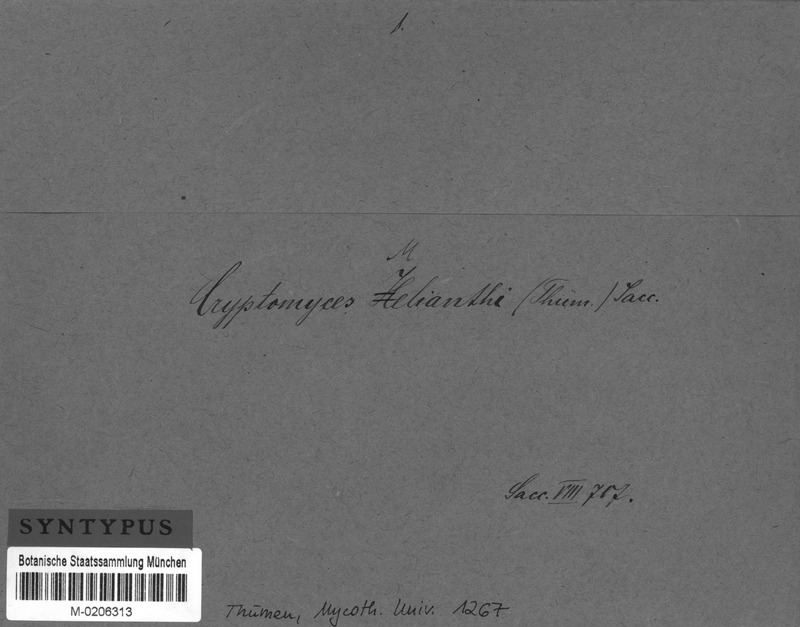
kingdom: Fungi
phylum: Ascomycota
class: Sordariomycetes
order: Phyllachorales
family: Phyllachoraceae
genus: Phyllachora
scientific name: Phyllachora melianthi
